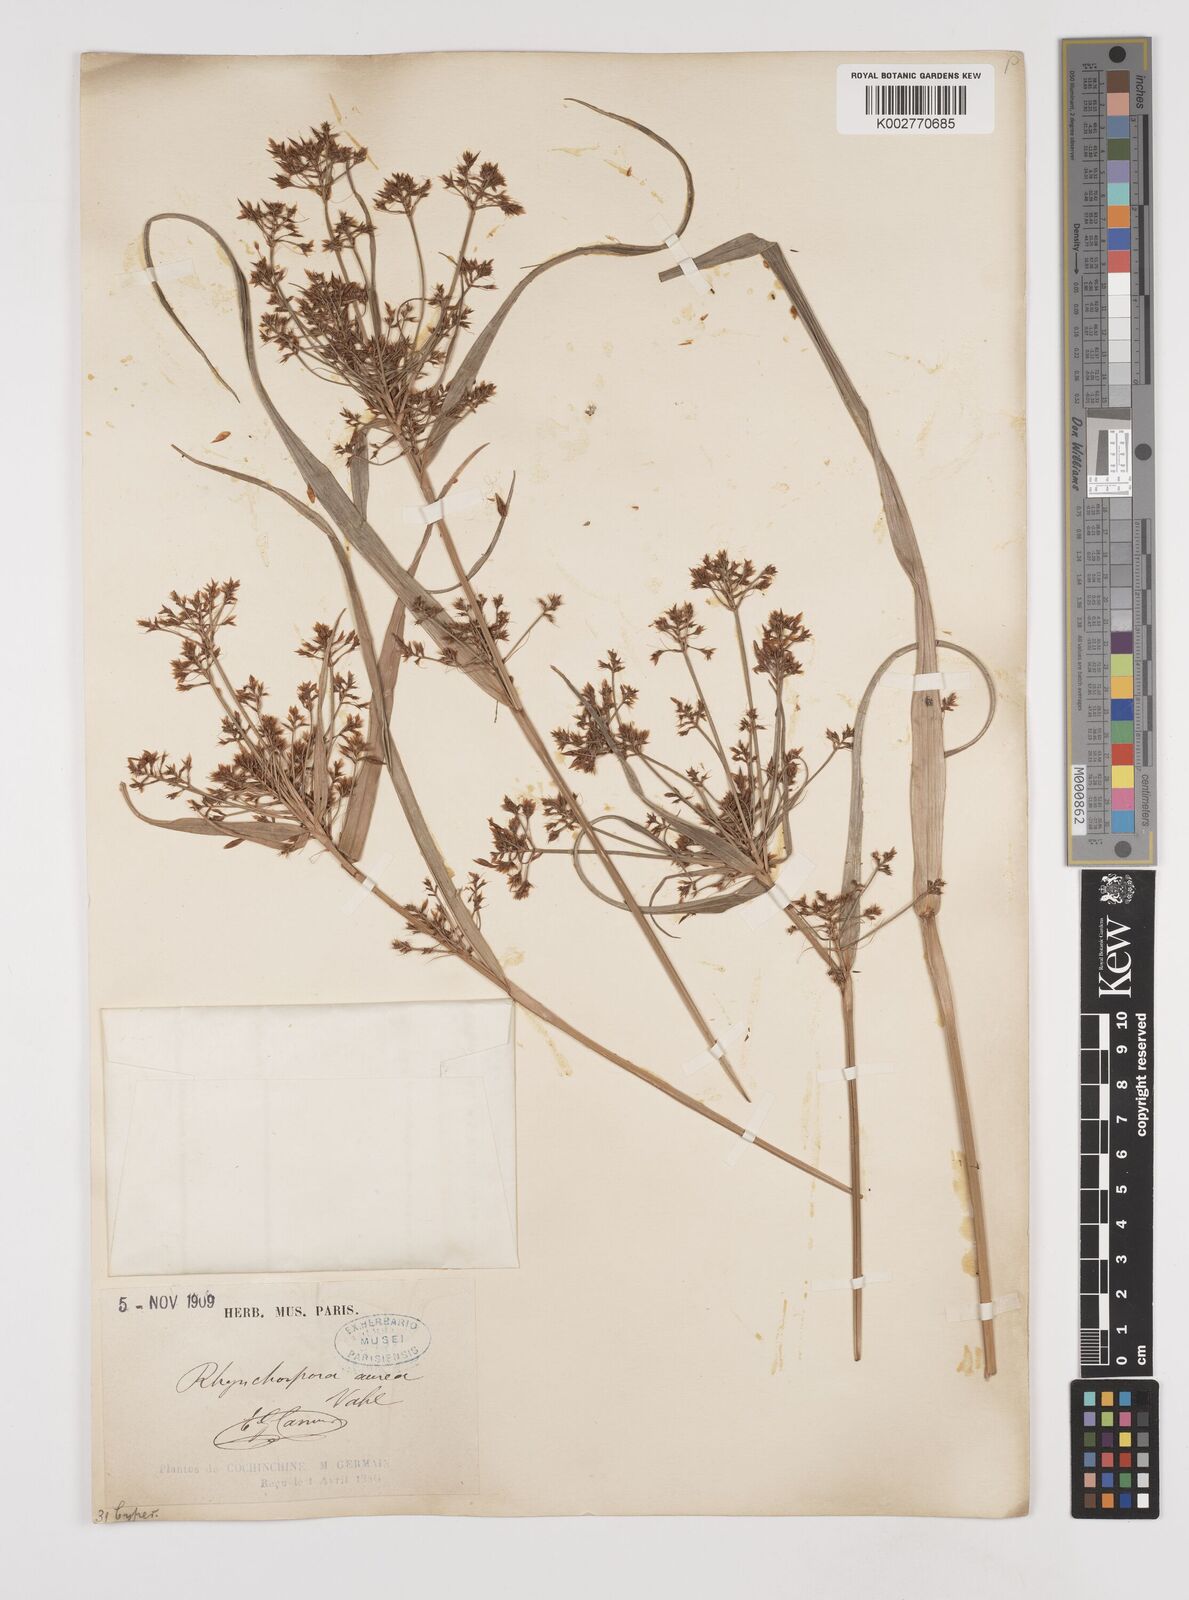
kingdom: Plantae
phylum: Tracheophyta
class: Liliopsida
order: Poales
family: Cyperaceae
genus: Rhynchospora
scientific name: Rhynchospora corymbosa
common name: Golden beak sedge
